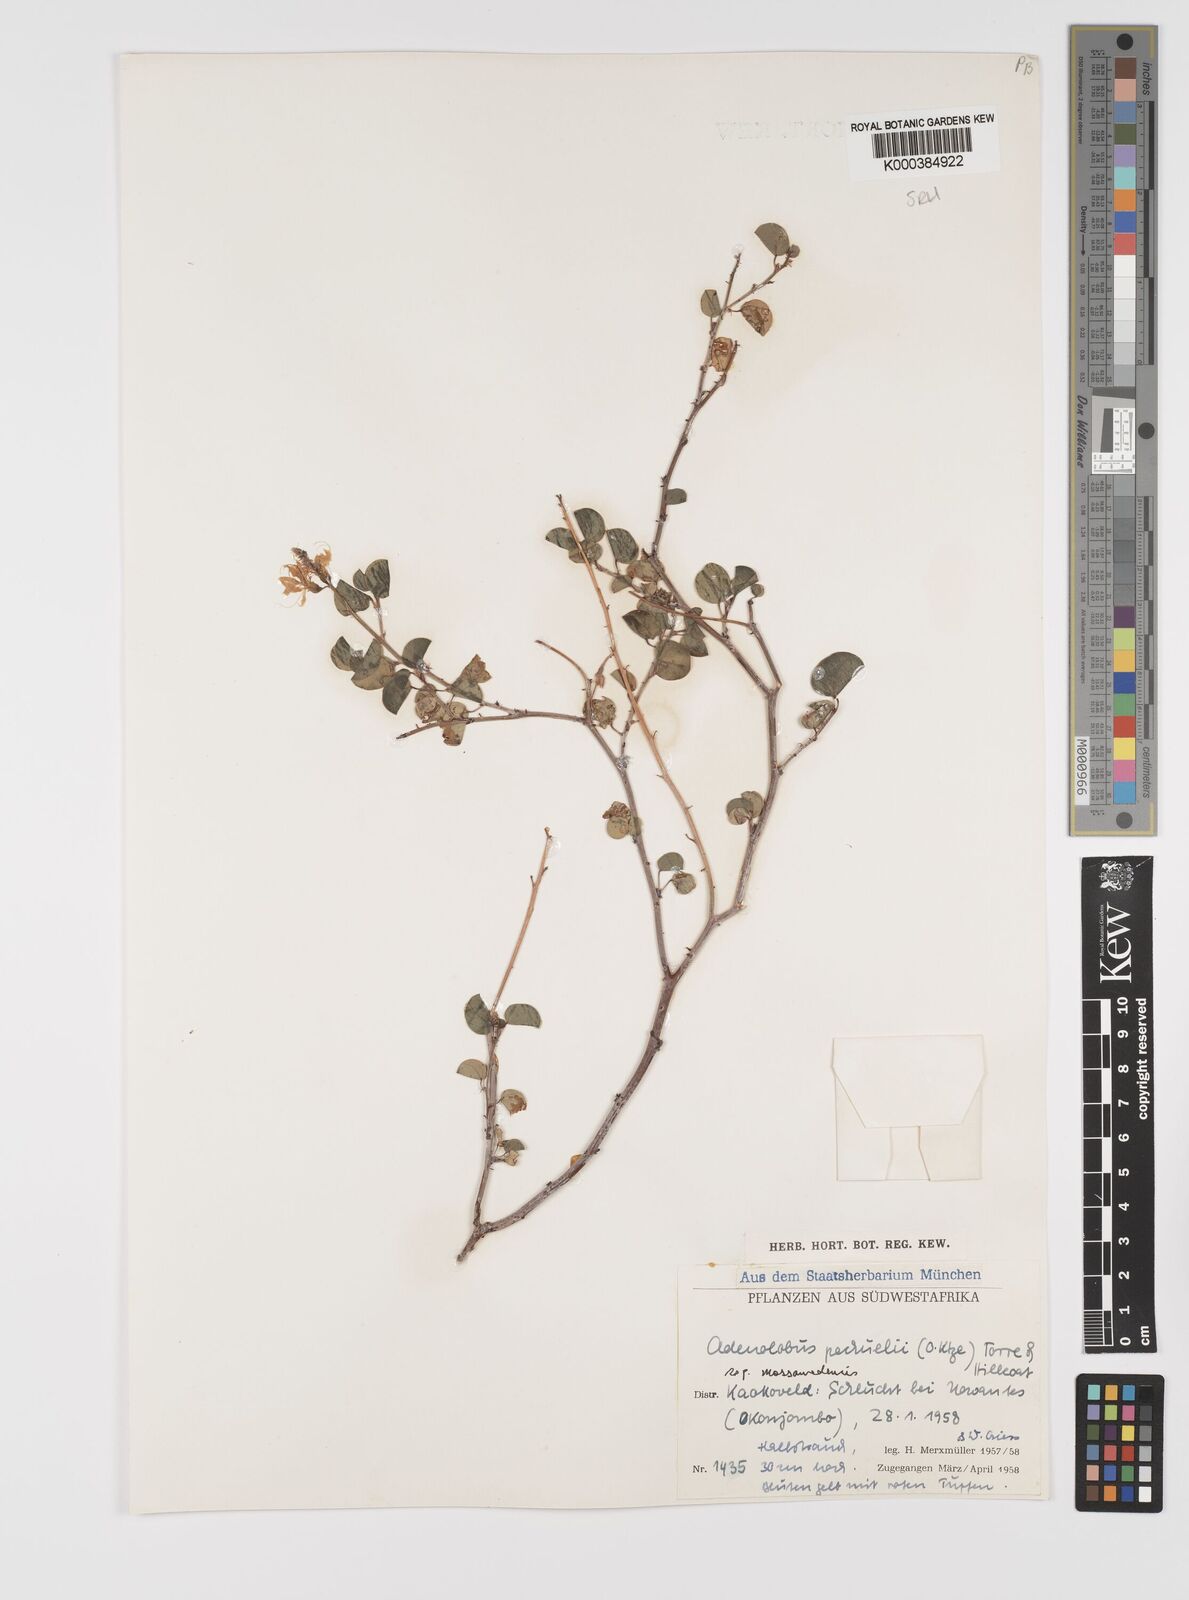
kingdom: Plantae
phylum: Tracheophyta
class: Magnoliopsida
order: Fabales
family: Fabaceae
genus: Adenolobus
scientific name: Adenolobus pechuelii
